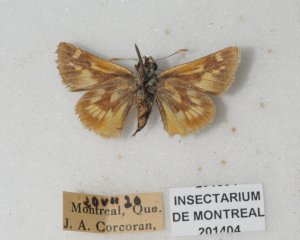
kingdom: Animalia
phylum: Arthropoda
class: Insecta
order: Lepidoptera
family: Hesperiidae
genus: Polites
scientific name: Polites
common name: Long Dash Skipper
